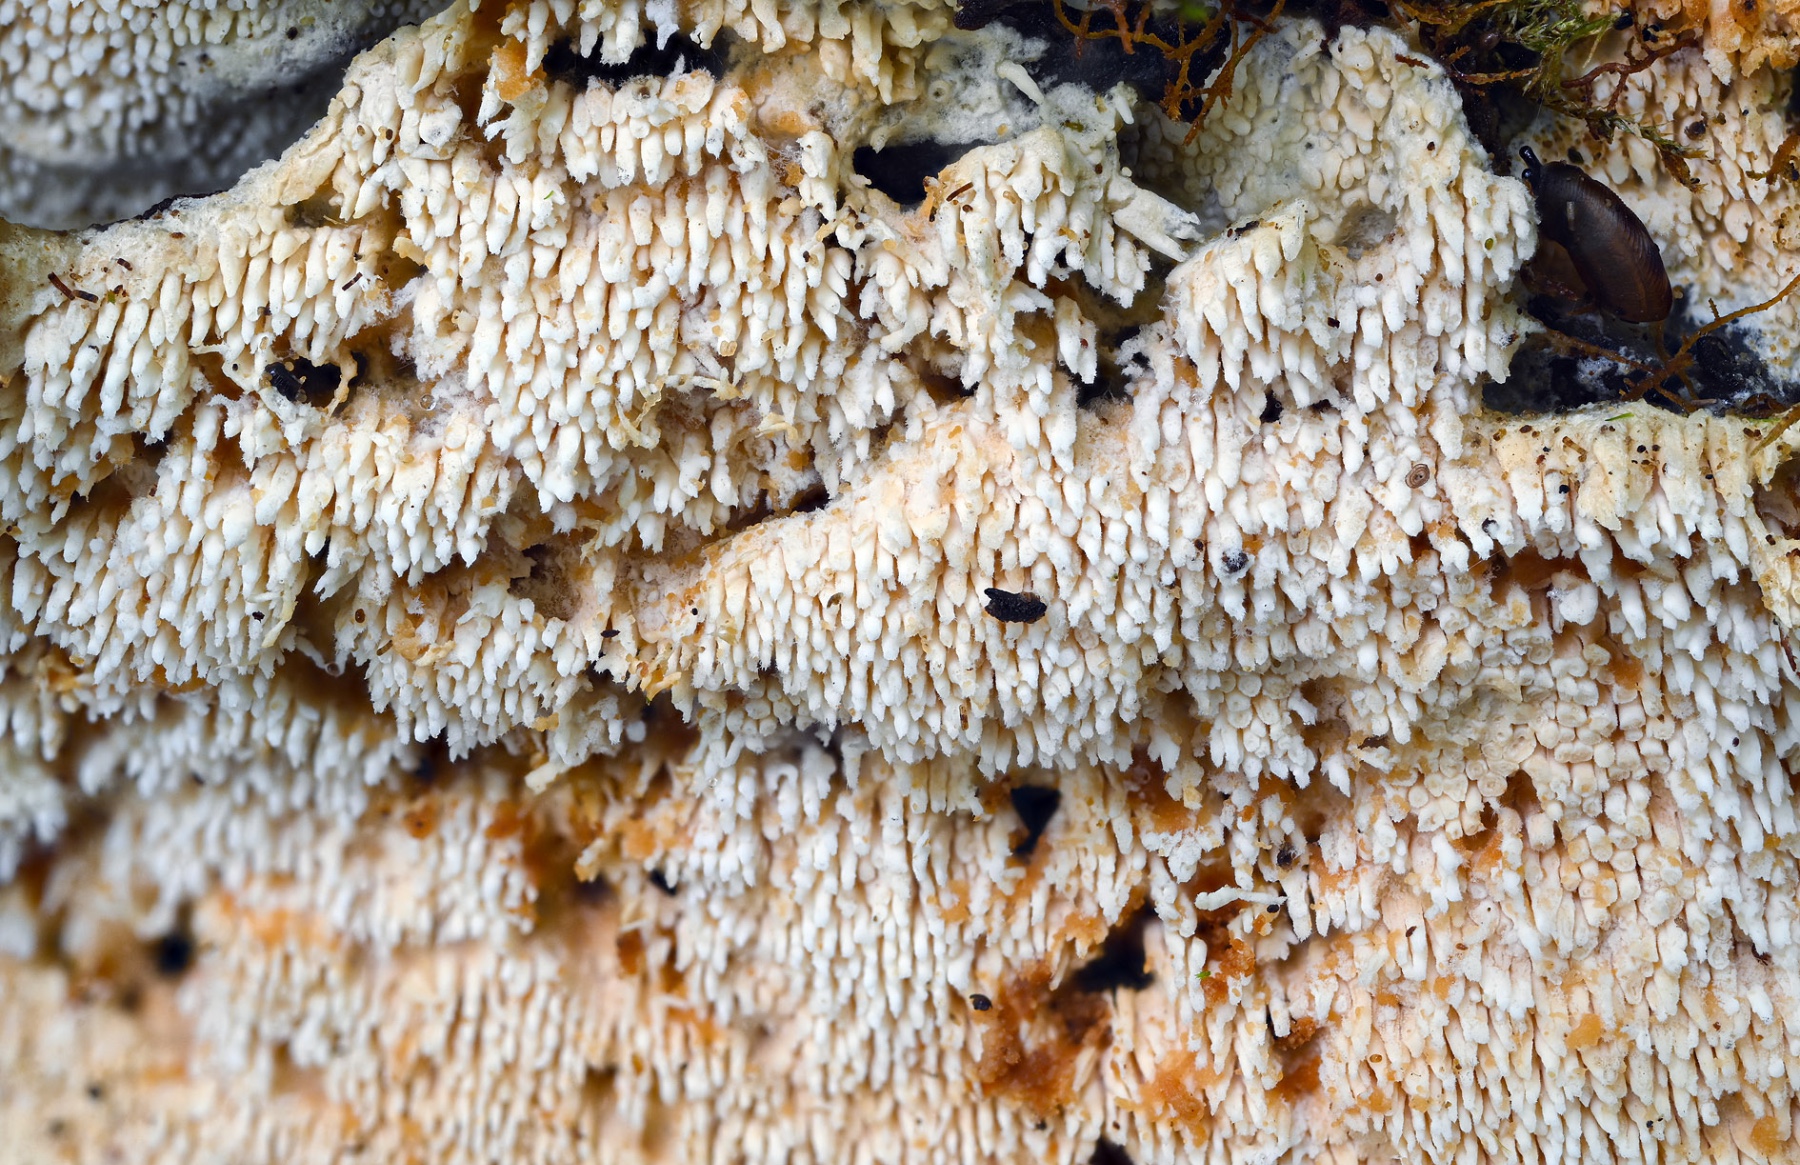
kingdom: Fungi
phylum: Basidiomycota
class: Agaricomycetes
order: Cantharellales
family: Hydnaceae
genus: Sistotrema
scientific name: Sistotrema raduloides
